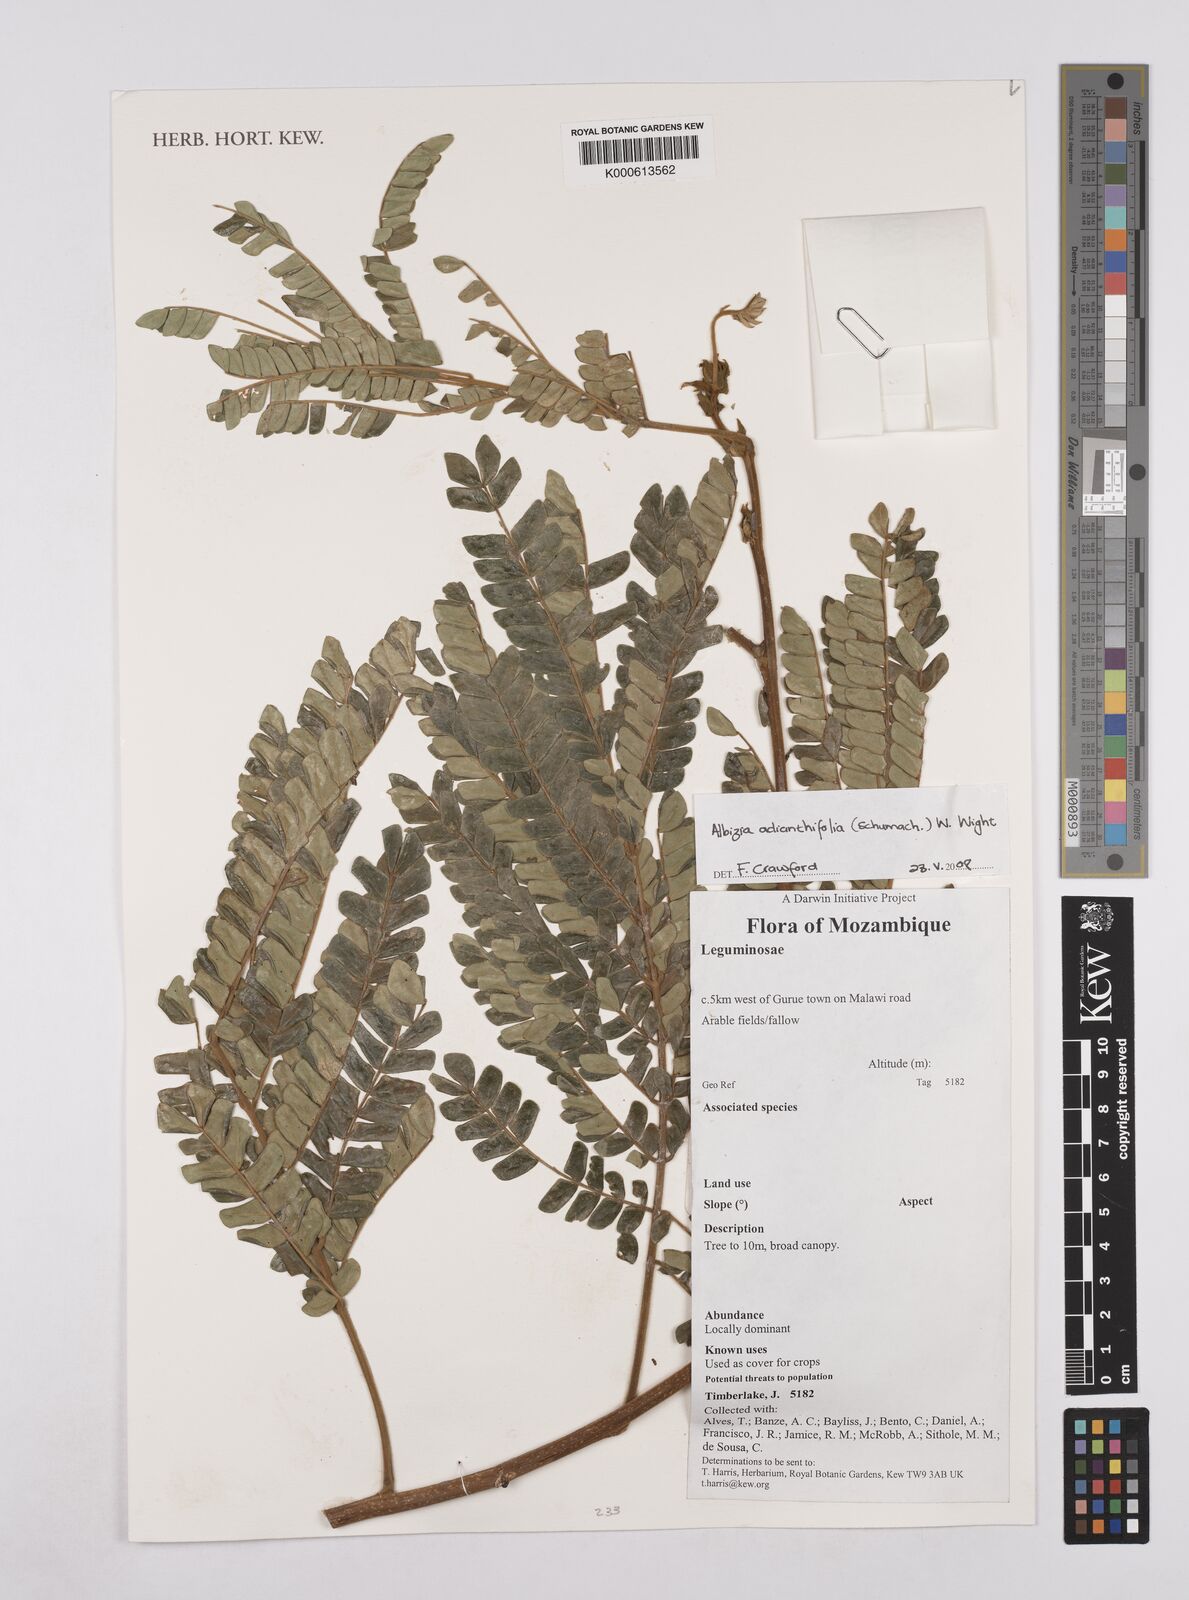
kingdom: Plantae
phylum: Tracheophyta
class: Magnoliopsida
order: Fabales
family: Fabaceae
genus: Albizia
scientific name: Albizia adianthifolia
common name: West african albizia
